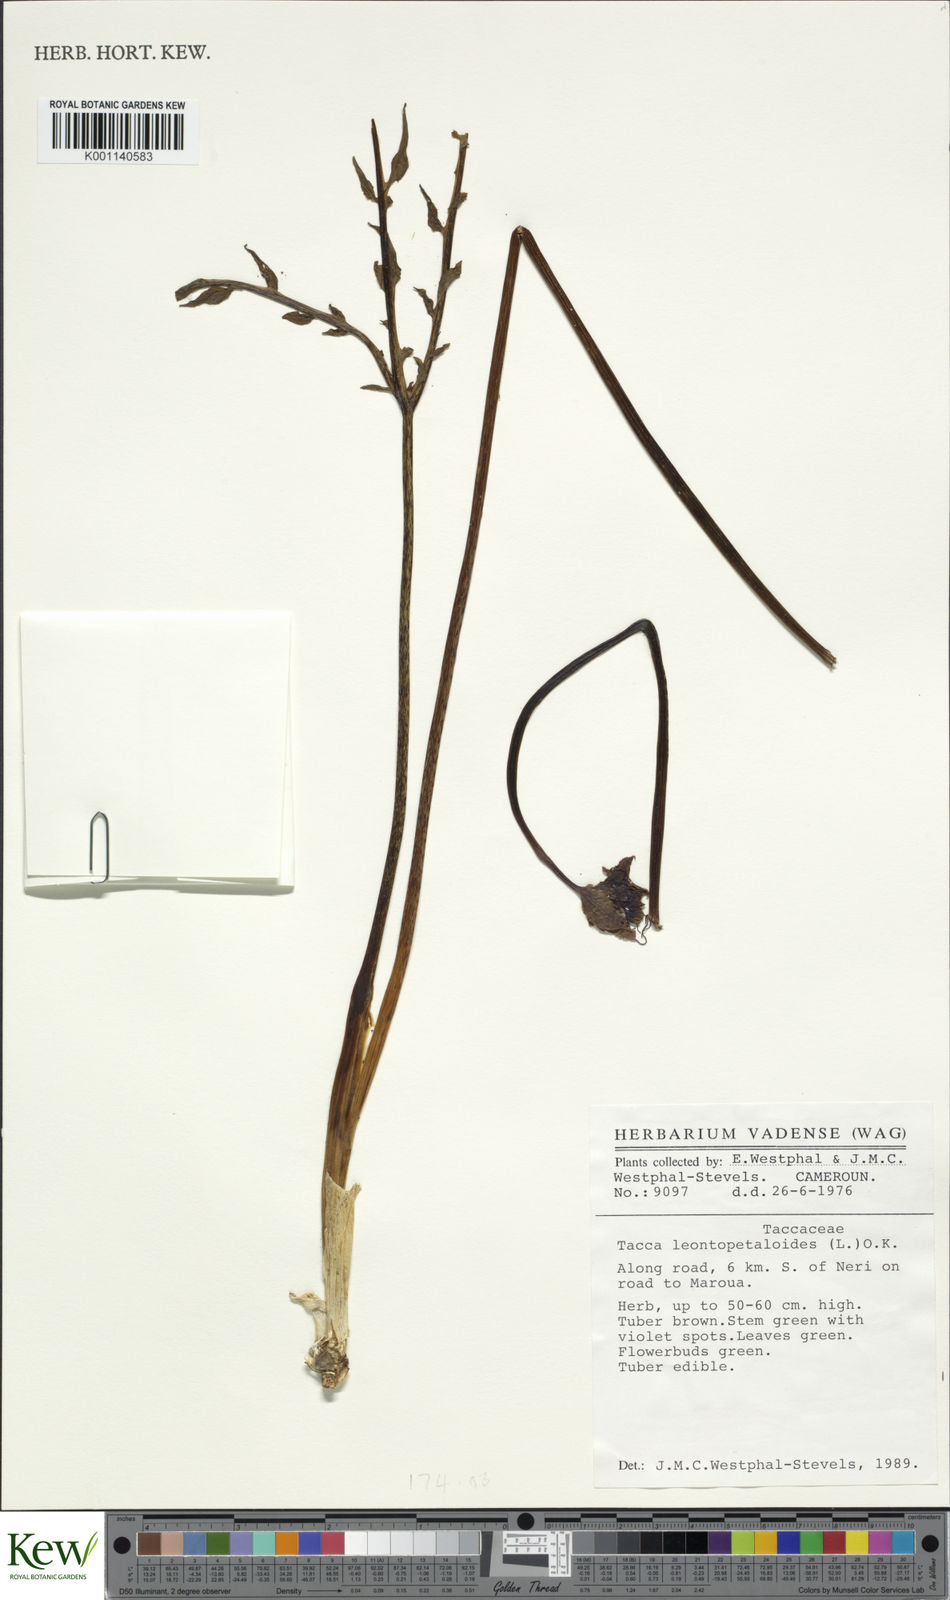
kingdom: Plantae
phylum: Tracheophyta
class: Liliopsida
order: Dioscoreales
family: Dioscoreaceae
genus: Tacca
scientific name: Tacca leontopetaloides
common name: Arrowroot
